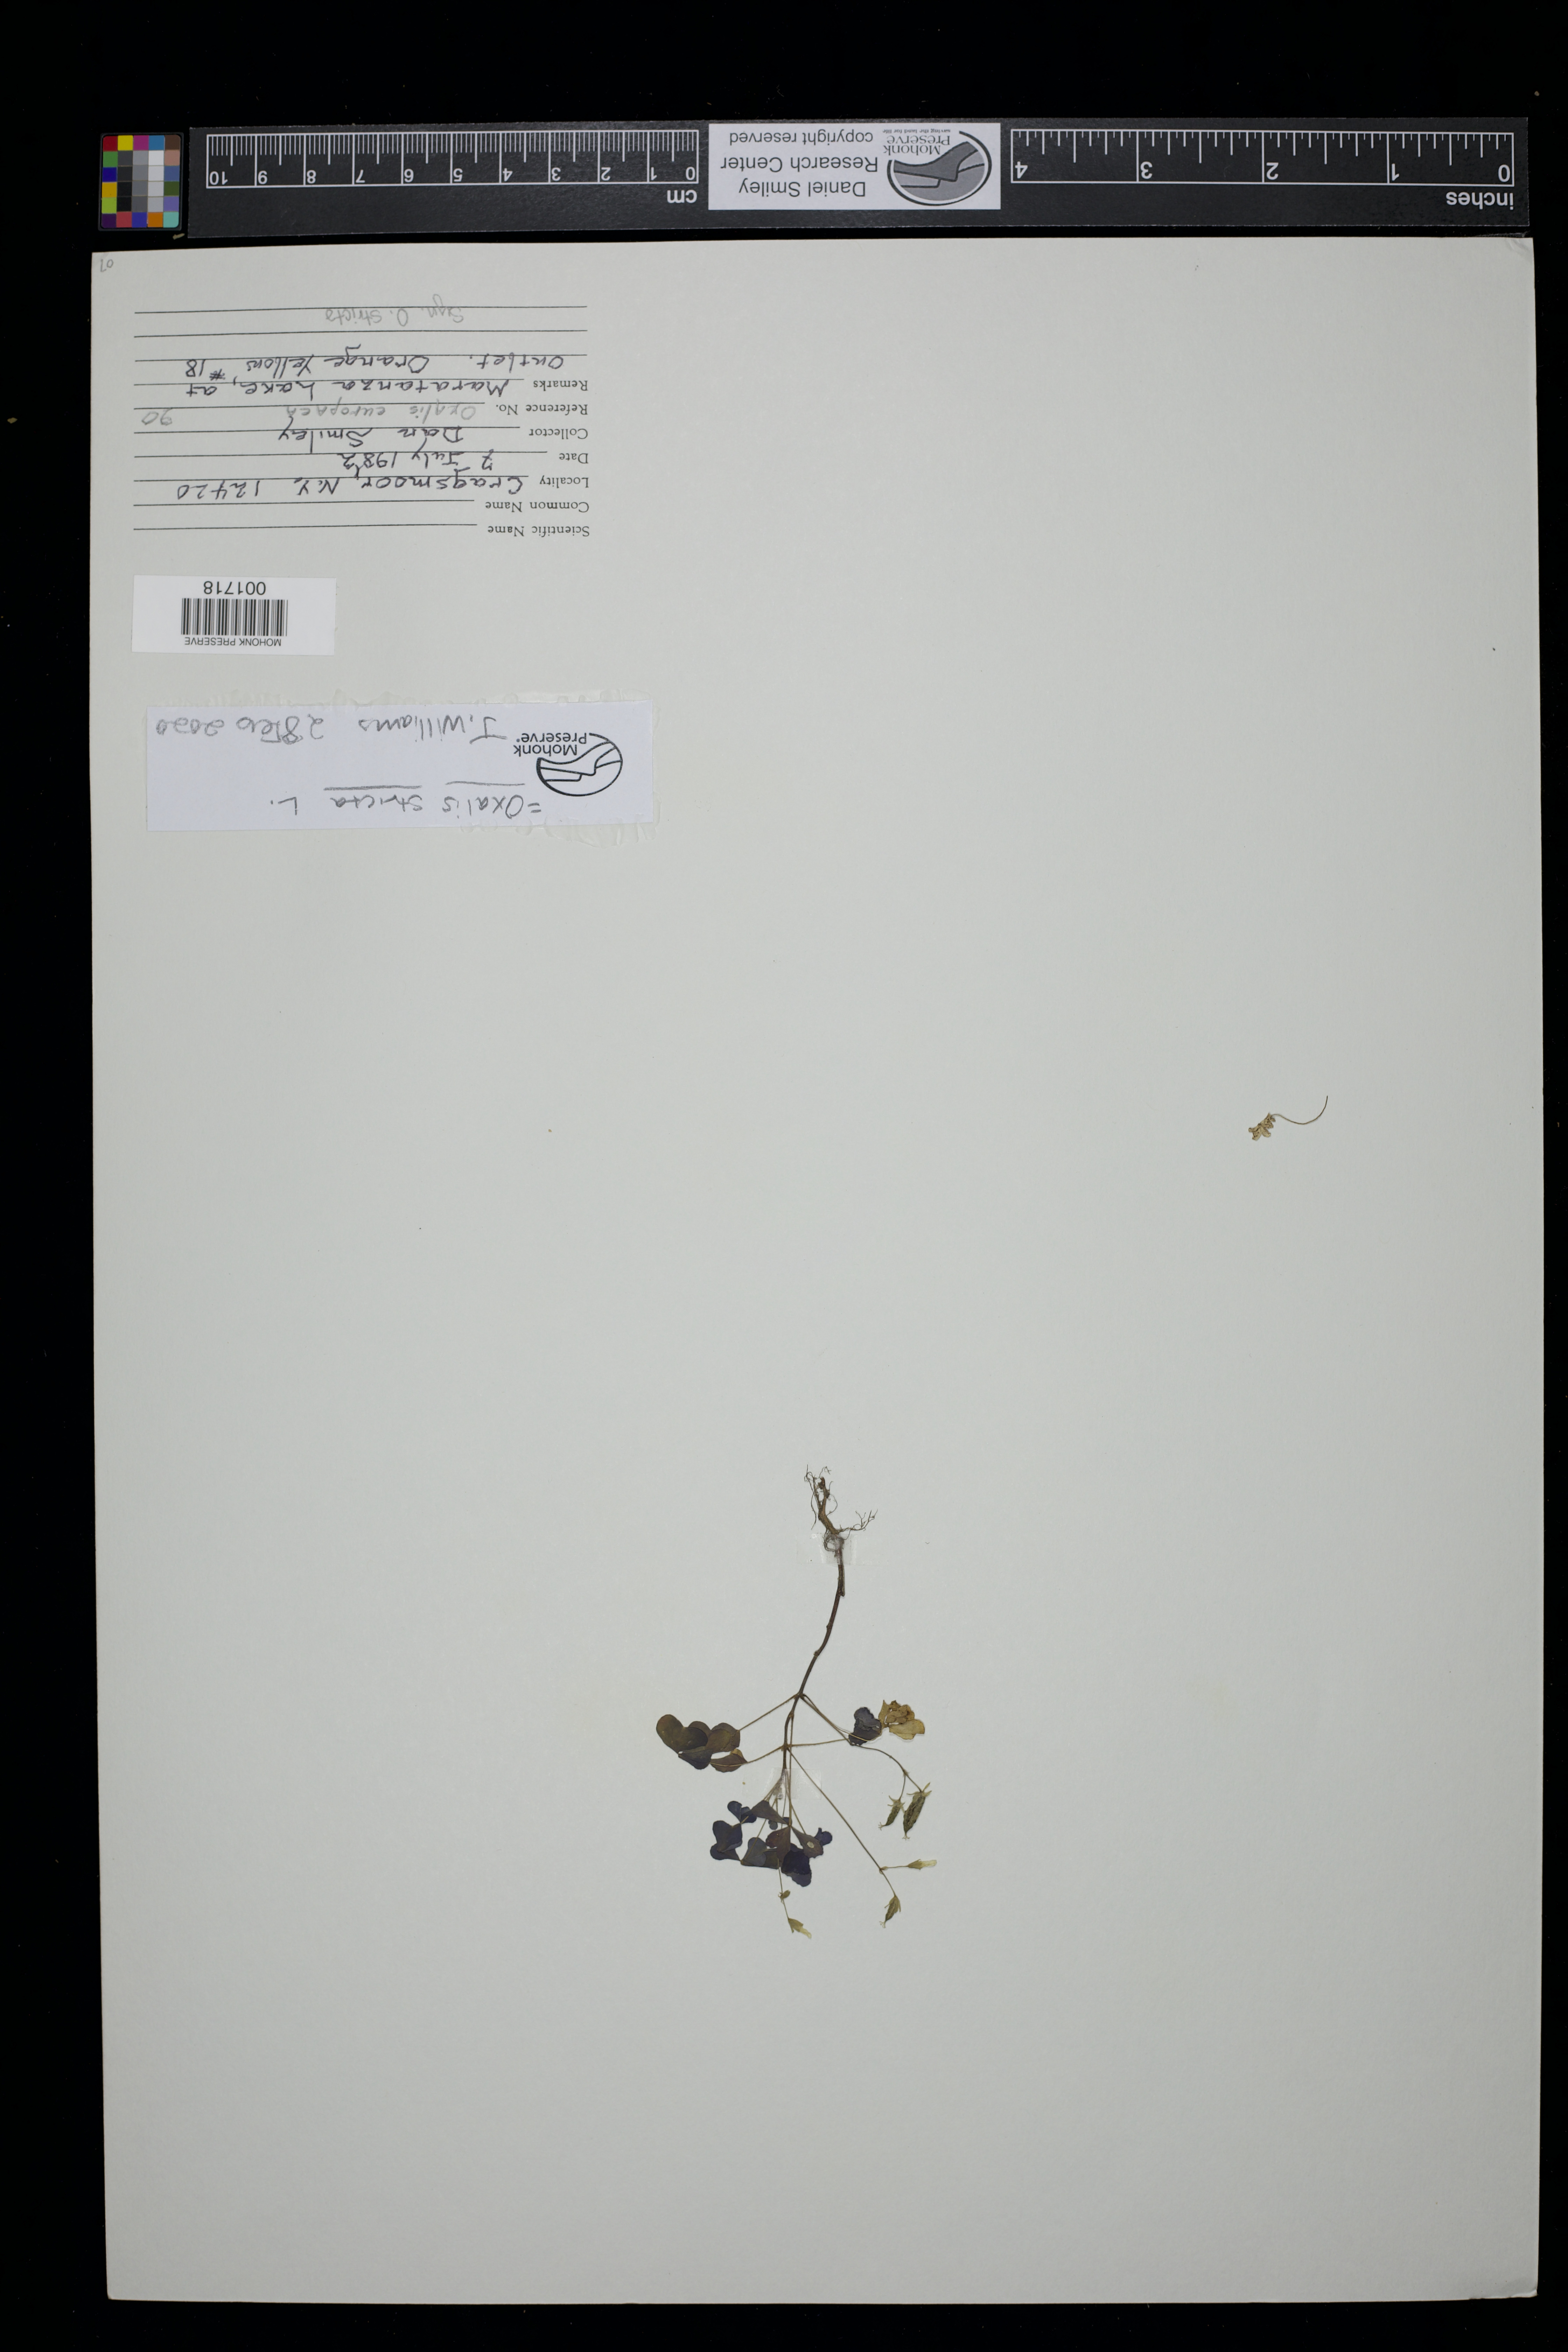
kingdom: Plantae
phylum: Tracheophyta
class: Magnoliopsida
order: Oxalidales
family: Oxalidaceae
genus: Oxalis
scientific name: Oxalis stricta
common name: Upright yellow-sorrel
